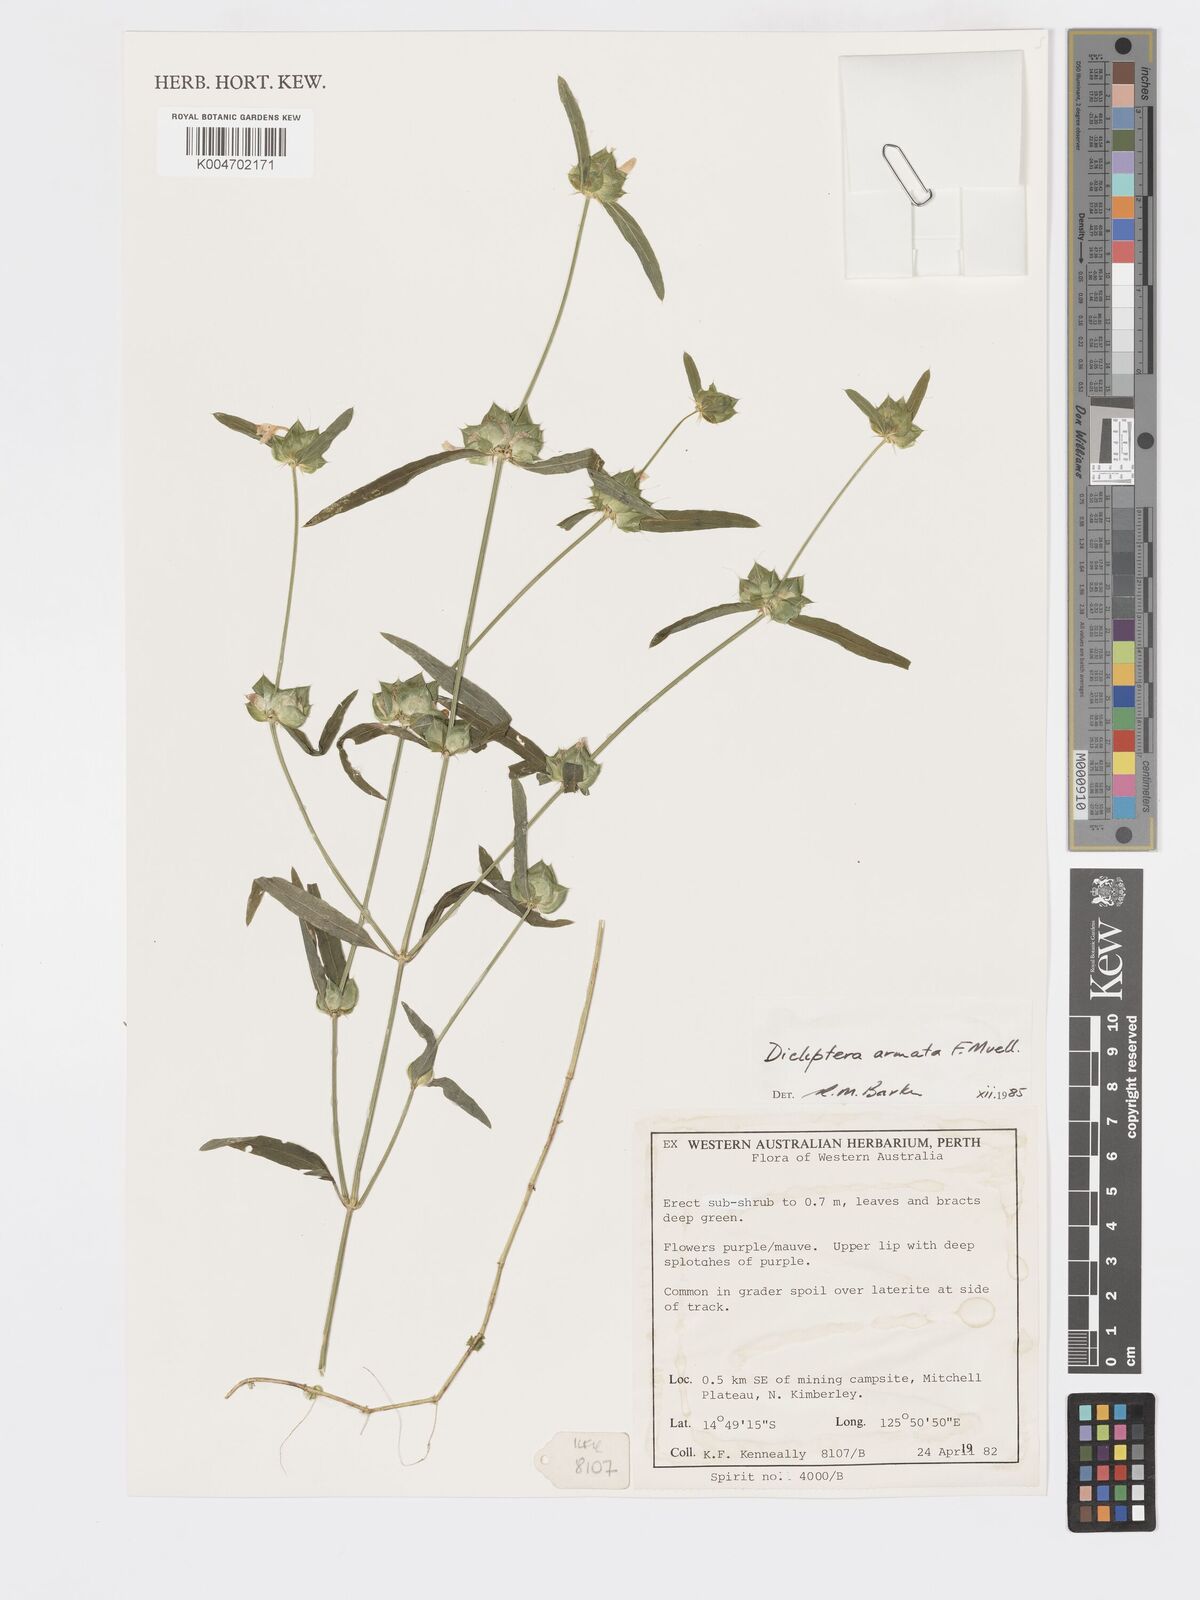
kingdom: Plantae
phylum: Tracheophyta
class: Magnoliopsida
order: Lamiales
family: Acanthaceae
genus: Dicliptera
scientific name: Dicliptera armata
